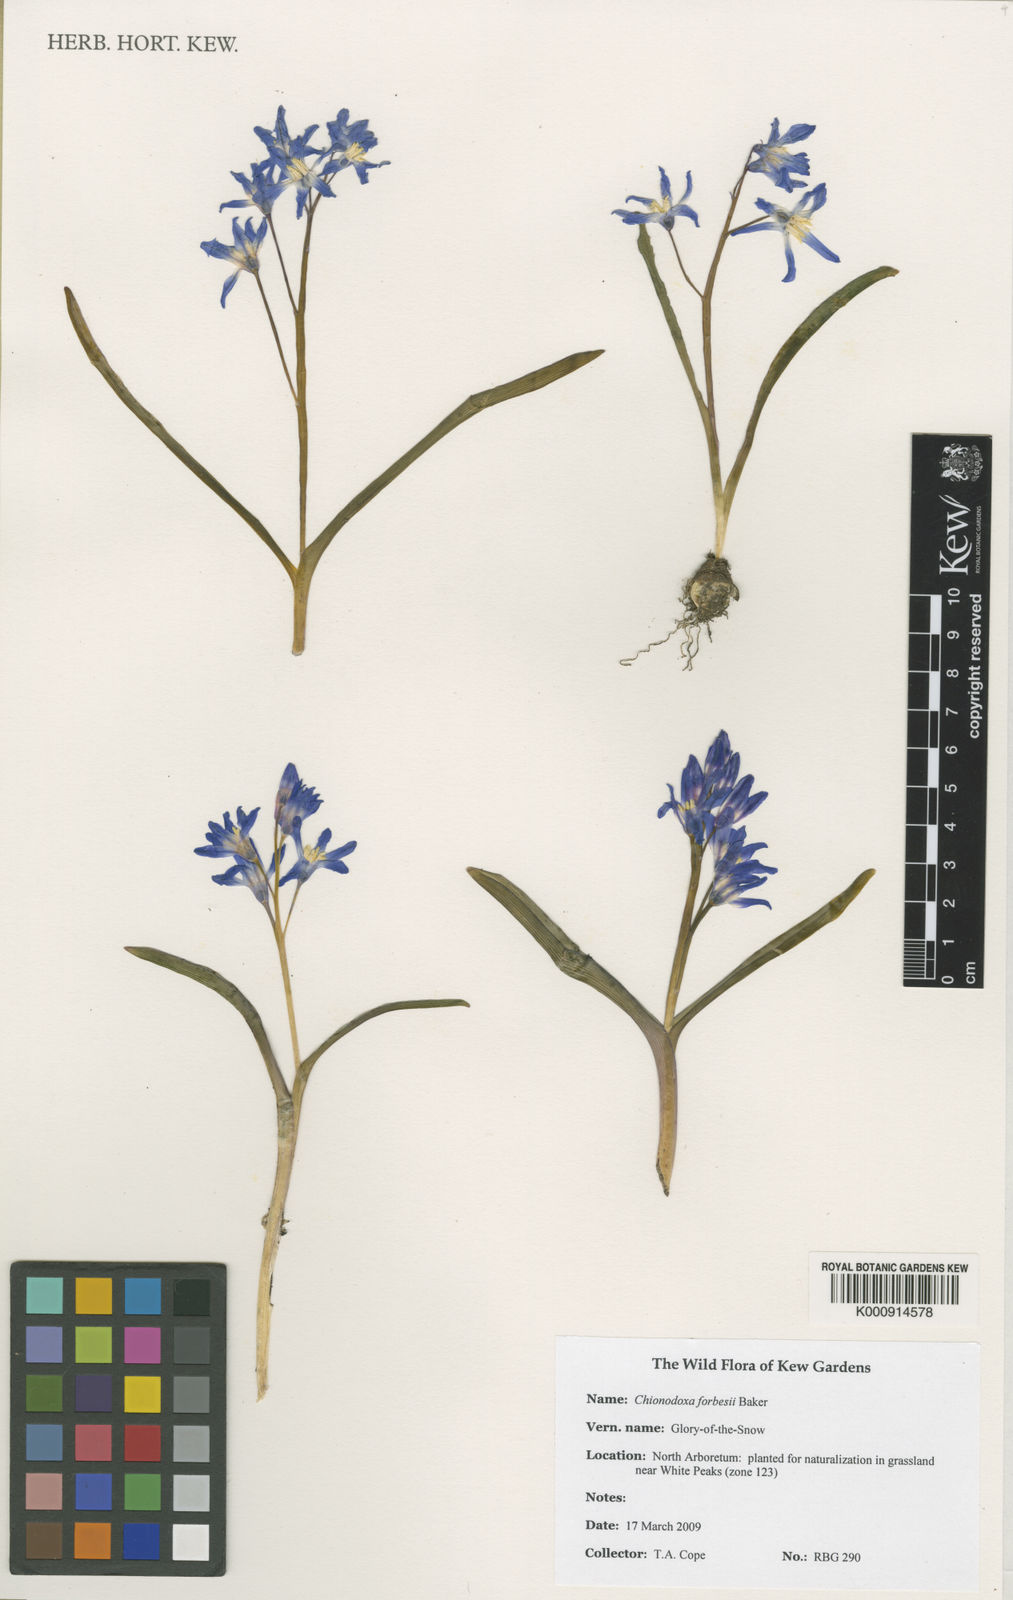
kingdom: Plantae
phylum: Tracheophyta
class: Liliopsida
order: Asparagales
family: Asparagaceae
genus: Scilla
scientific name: Scilla forbesii
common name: Glory-of-the-snow
